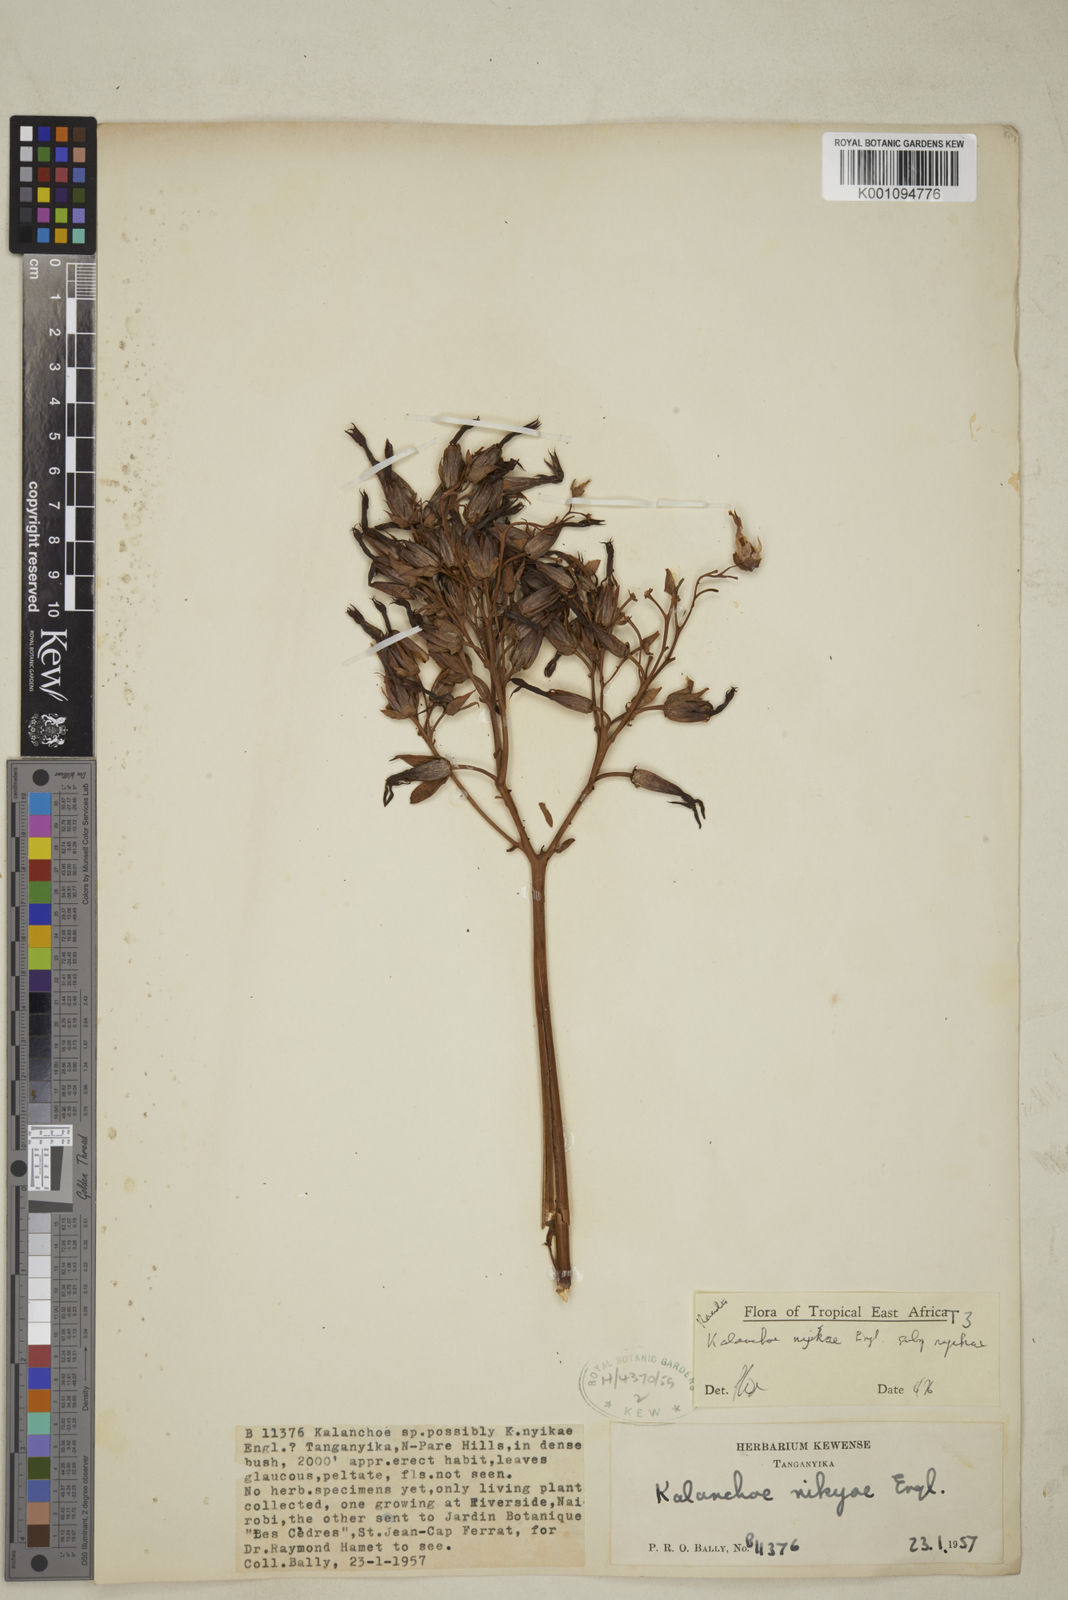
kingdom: Plantae
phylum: Tracheophyta
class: Magnoliopsida
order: Saxifragales
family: Crassulaceae
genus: Kalanchoe
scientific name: Kalanchoe nyikae
